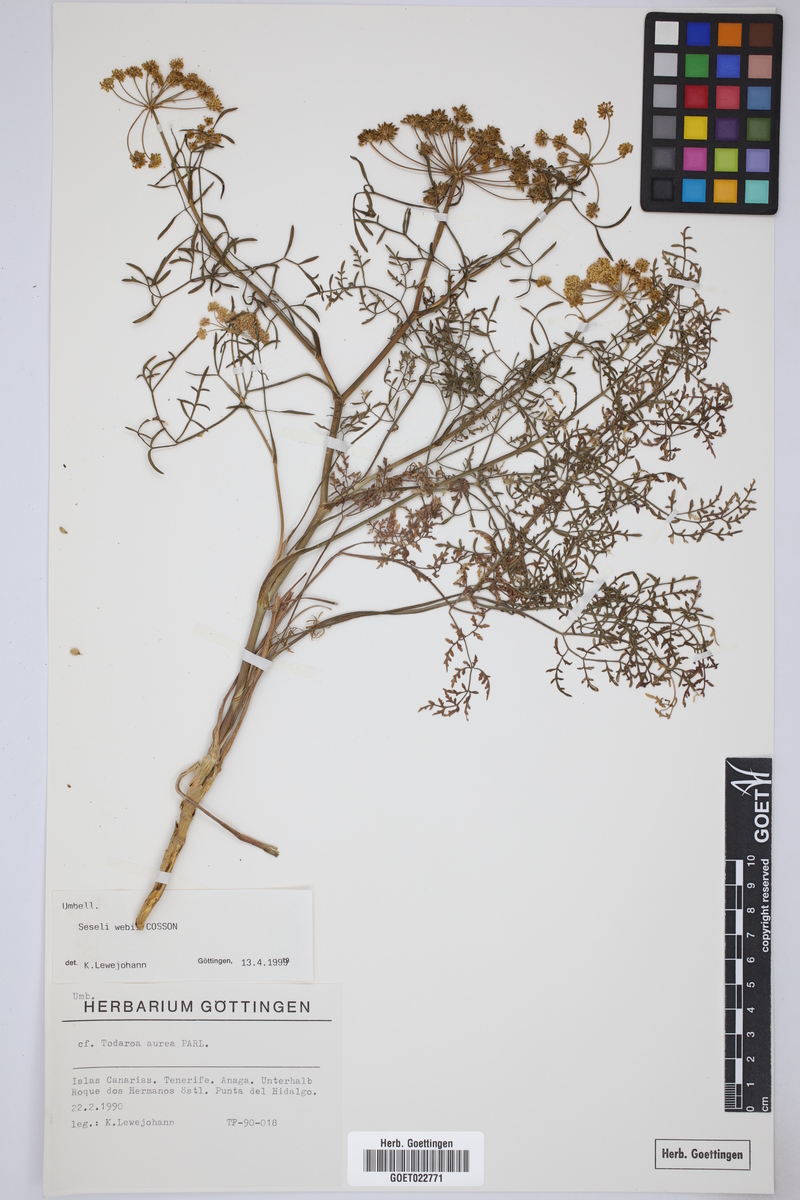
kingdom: Plantae
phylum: Tracheophyta
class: Magnoliopsida
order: Apiales
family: Apiaceae
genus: Rutheopsis
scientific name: Rutheopsis tortuosa
